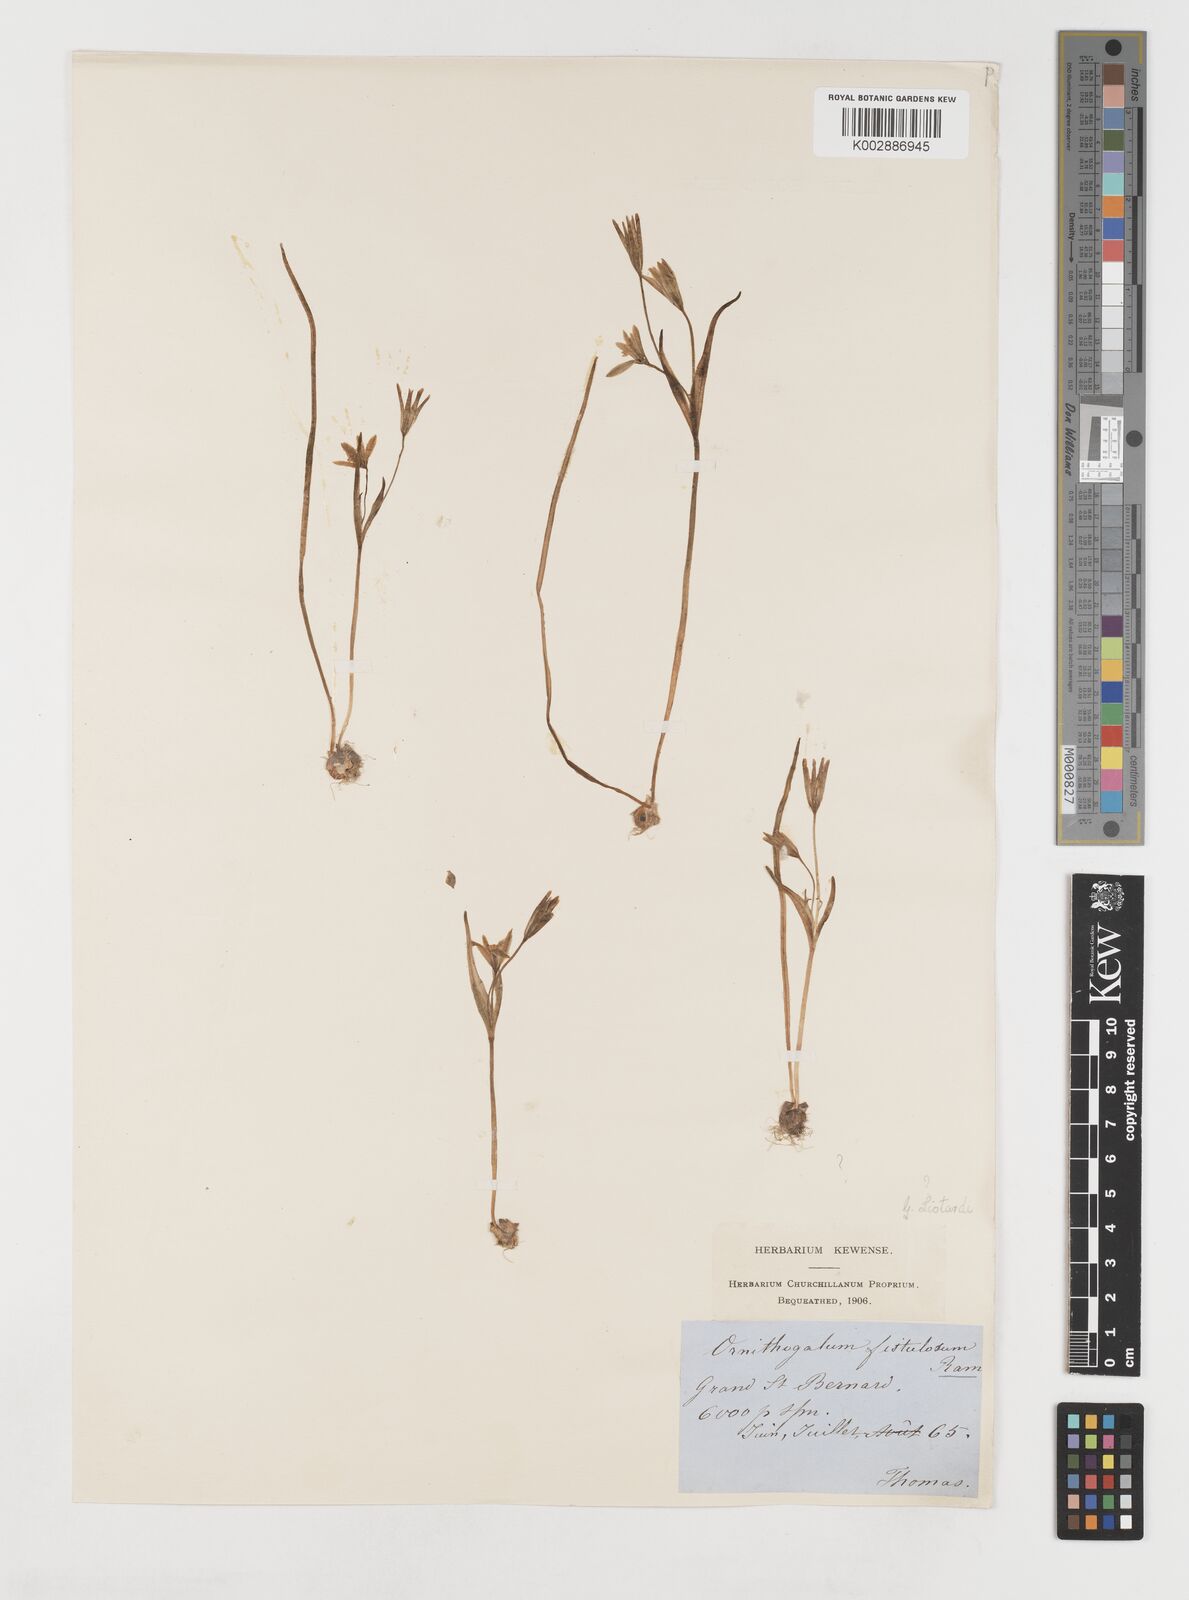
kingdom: Plantae
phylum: Tracheophyta
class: Liliopsida
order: Liliales
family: Liliaceae
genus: Gagea
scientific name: Gagea foliosa
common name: Leafy gagea
